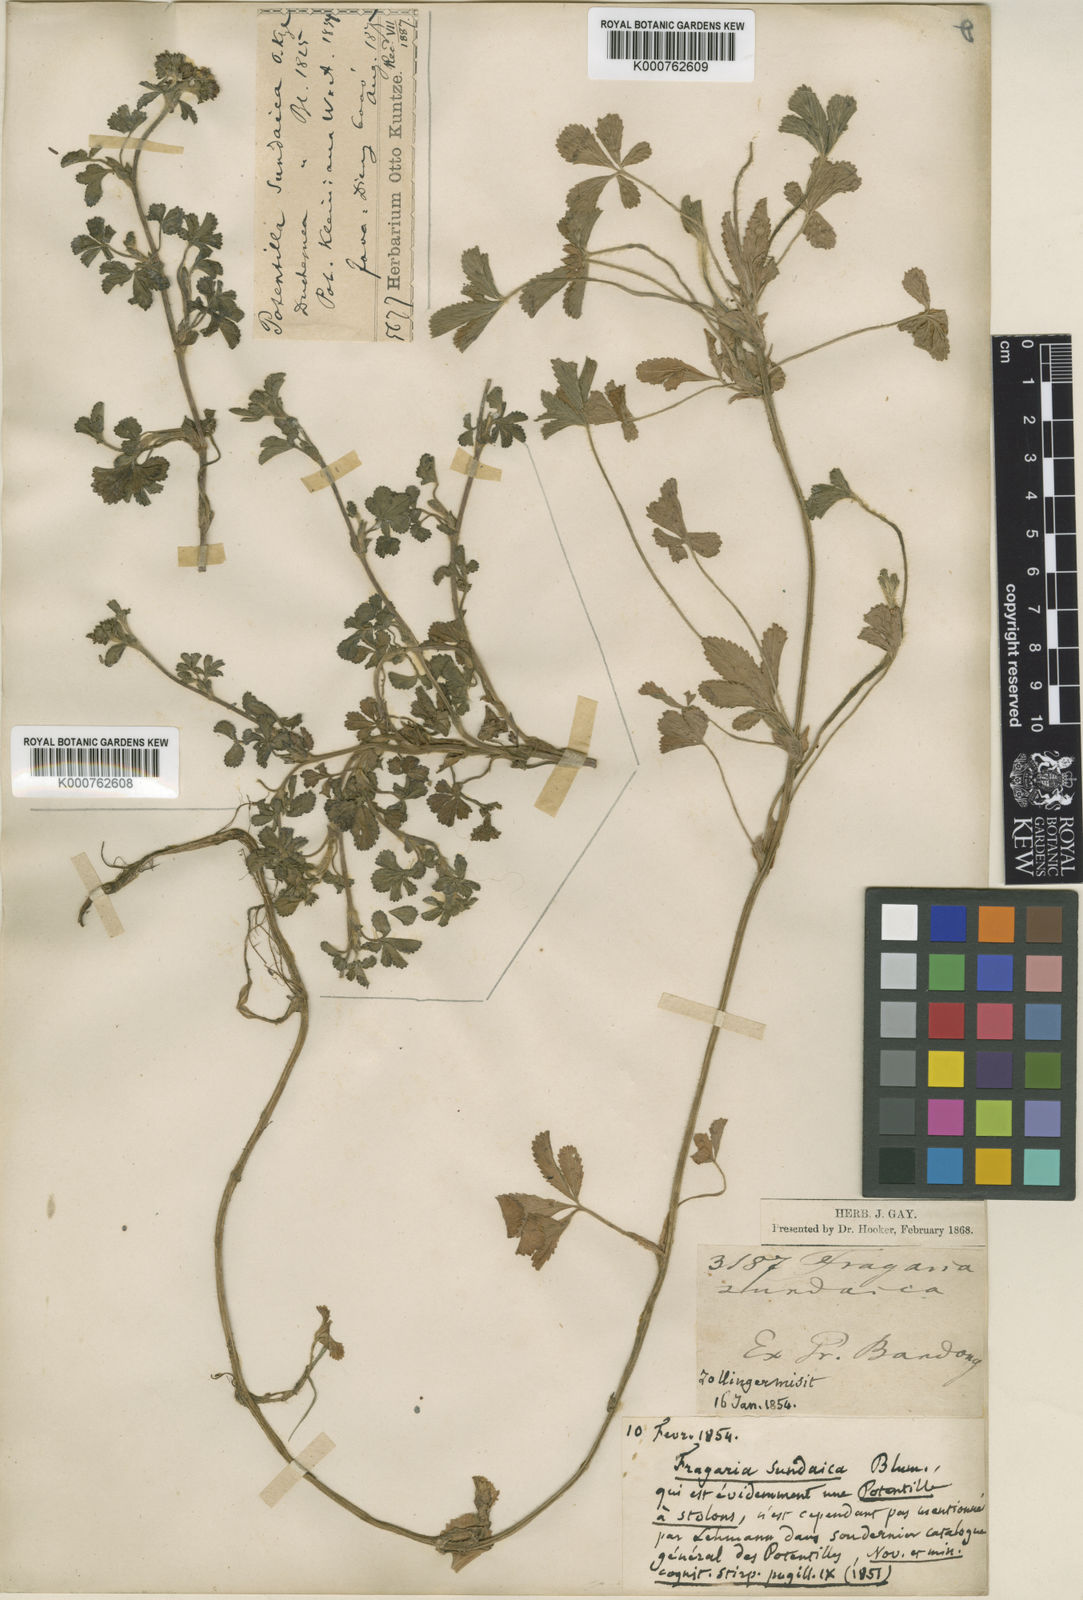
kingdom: Plantae
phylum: Tracheophyta
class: Magnoliopsida
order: Rosales
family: Rosaceae
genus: Potentilla
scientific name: Potentilla
